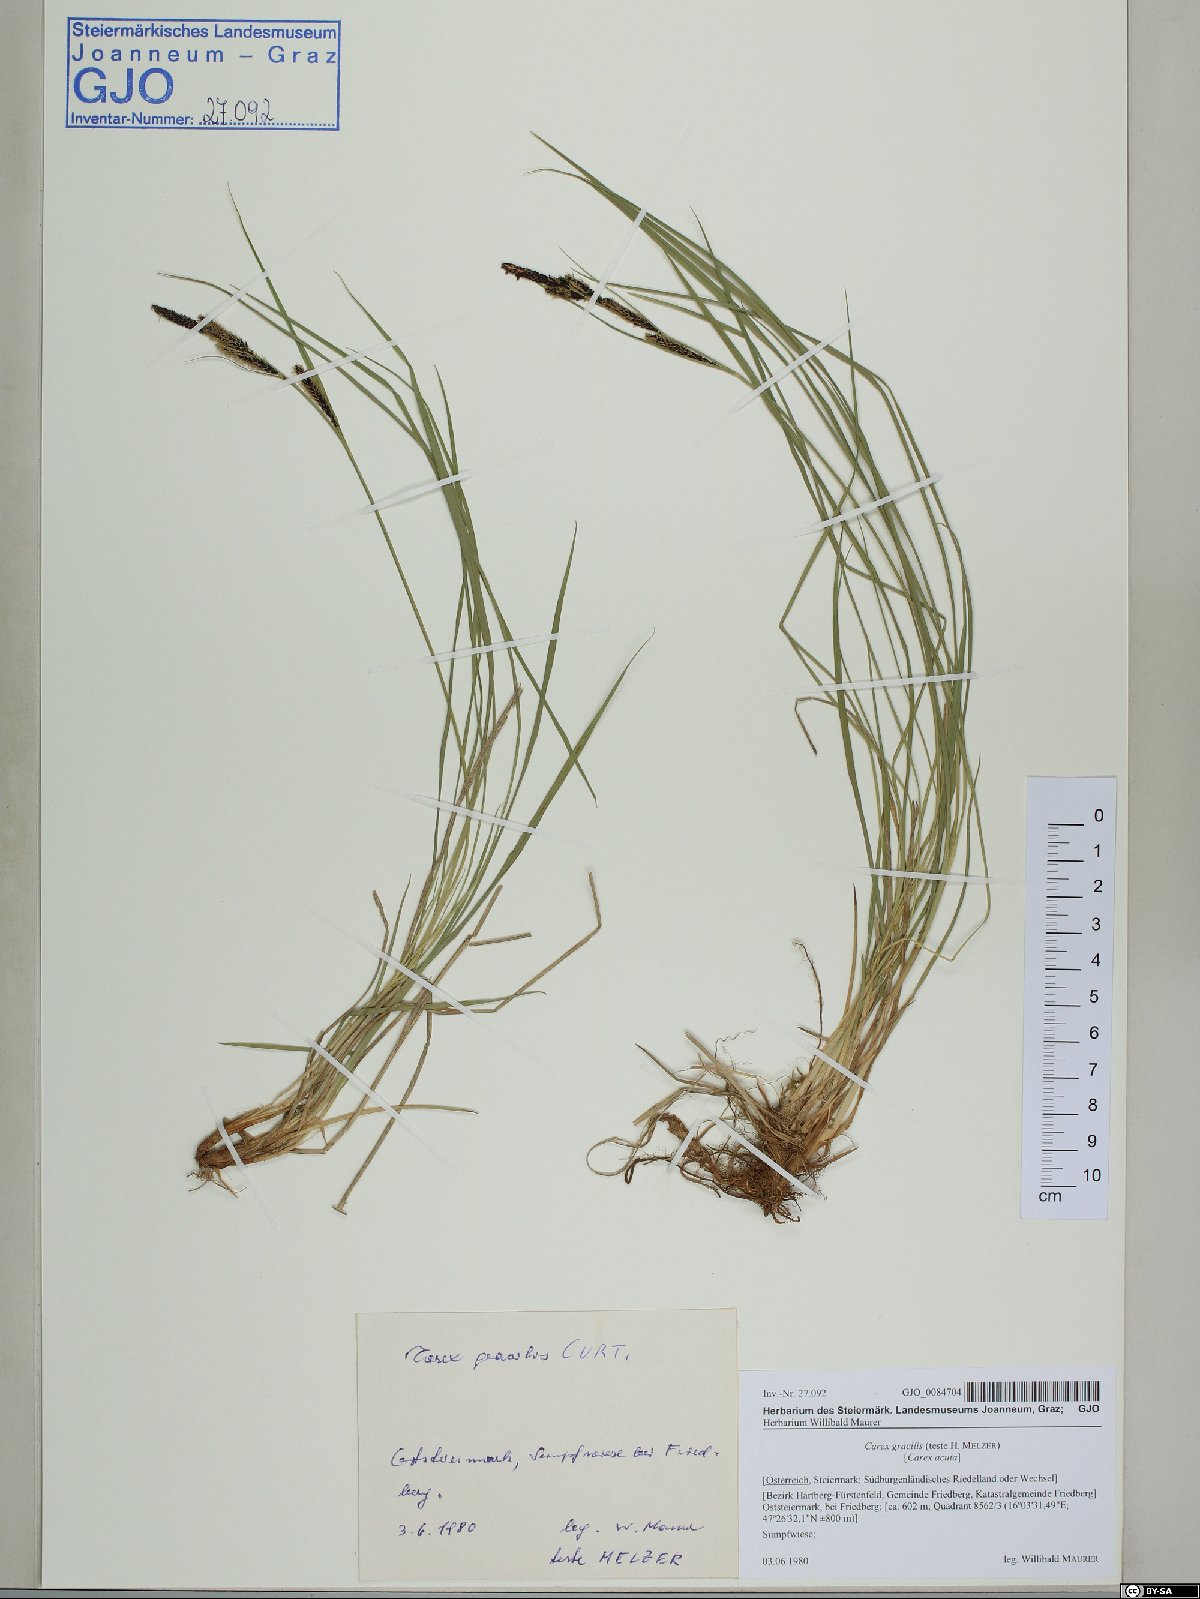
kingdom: Plantae
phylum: Tracheophyta
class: Liliopsida
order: Poales
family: Cyperaceae
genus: Carex
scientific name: Carex acuta
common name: Slender tufted-sedge
